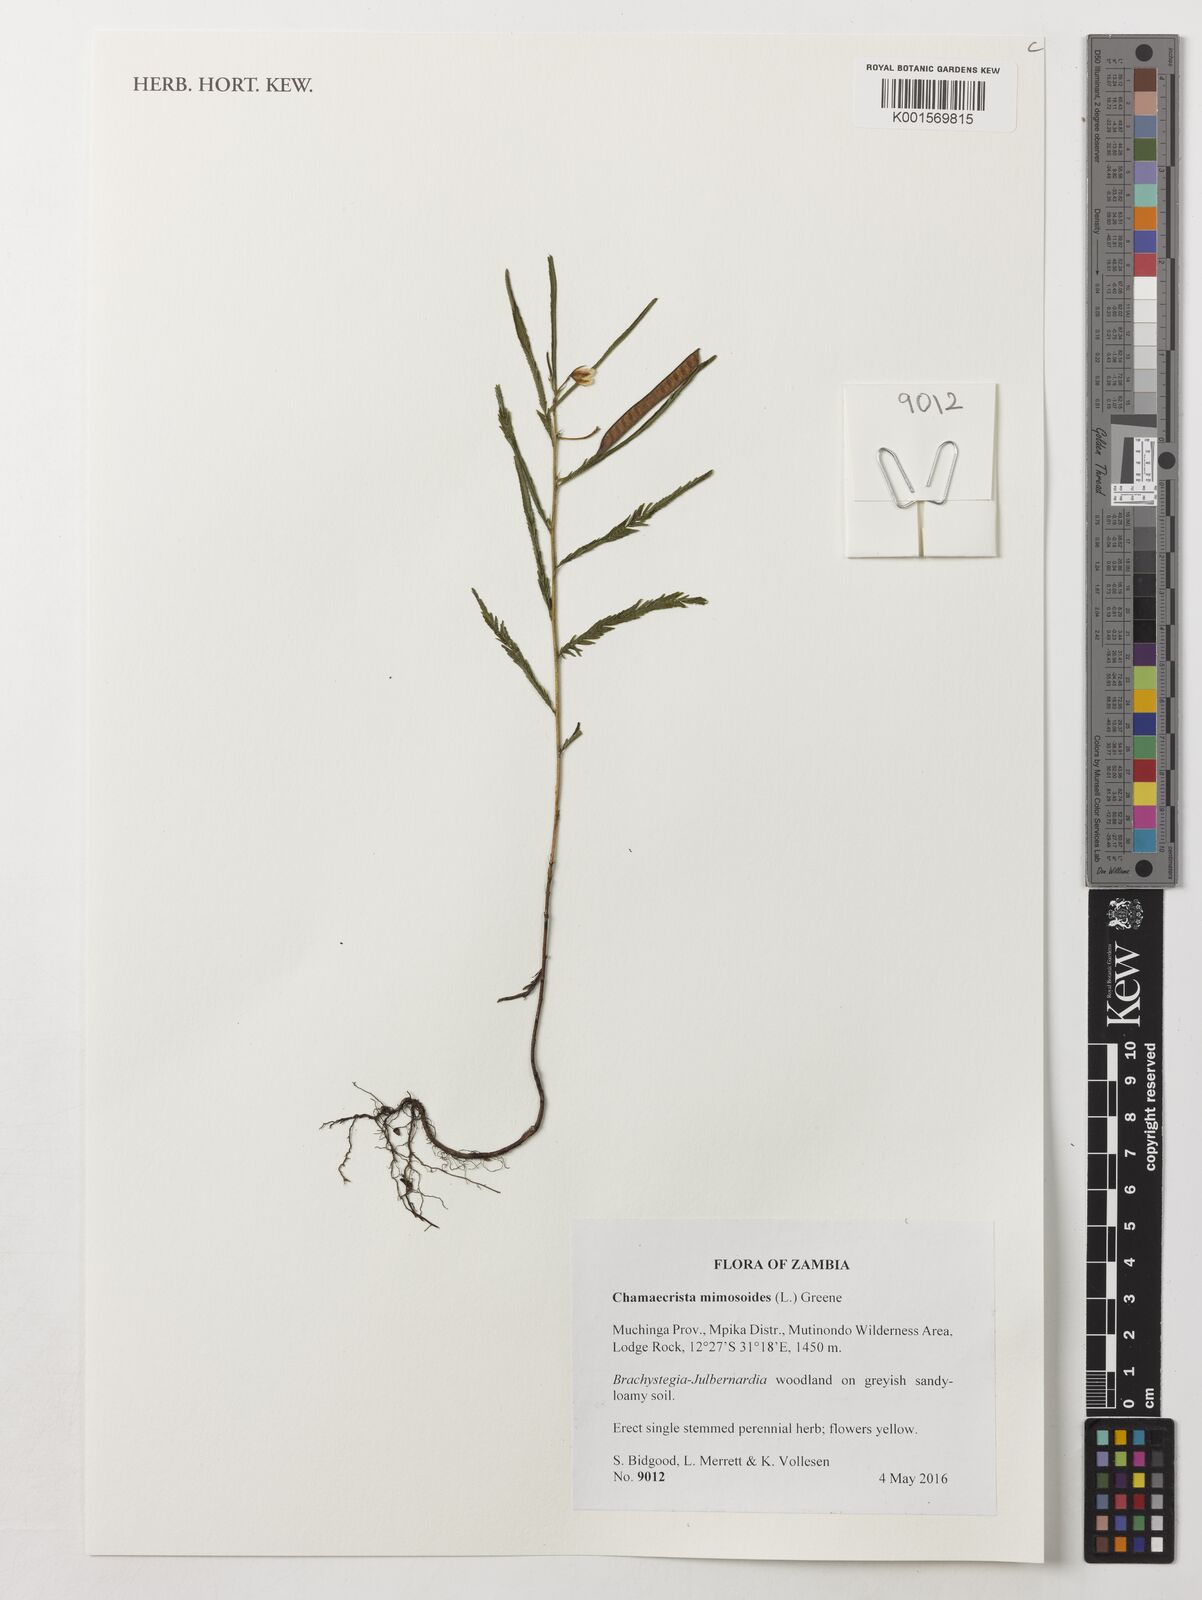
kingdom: Plantae
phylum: Tracheophyta
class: Magnoliopsida
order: Fabales
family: Fabaceae
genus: Chamaecrista
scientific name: Chamaecrista mimosoides
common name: Fish-bone cassia
